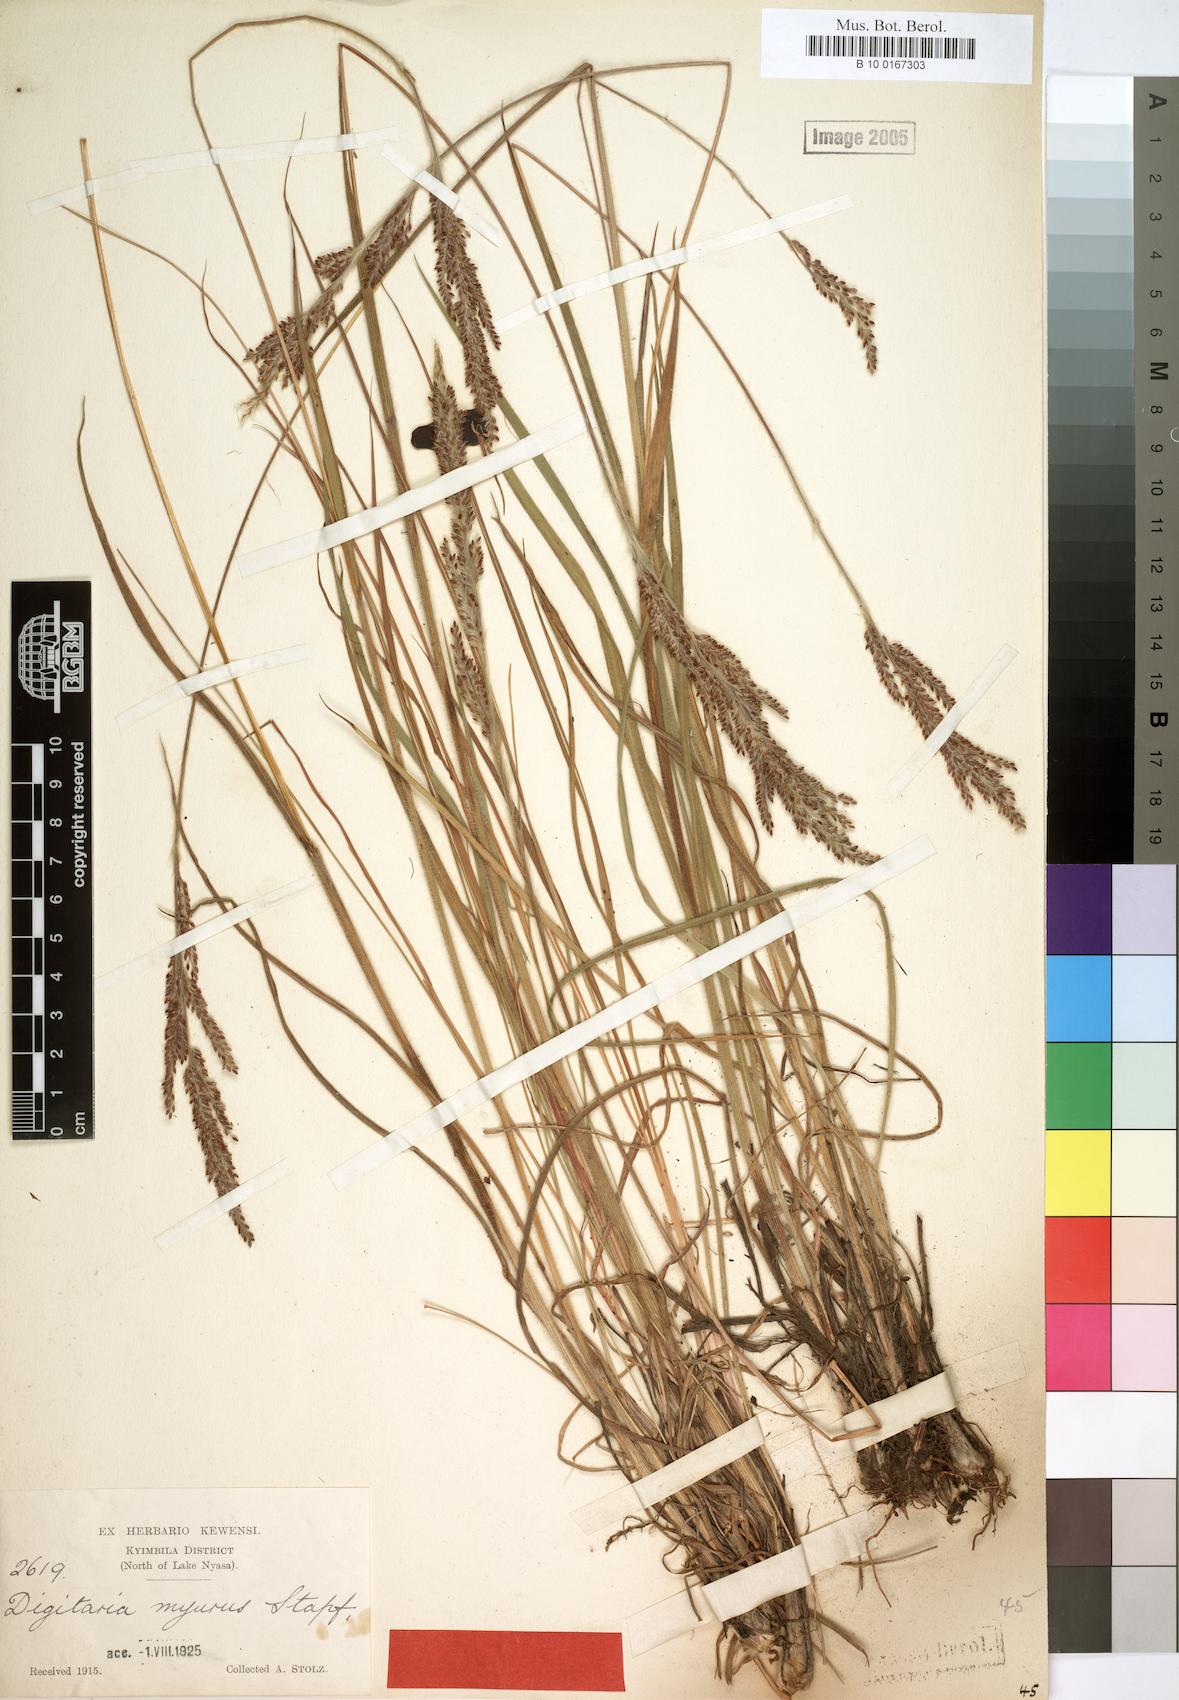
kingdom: Plantae
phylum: Tracheophyta
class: Liliopsida
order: Poales
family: Poaceae
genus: Digitaria
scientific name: Digitaria myurus
